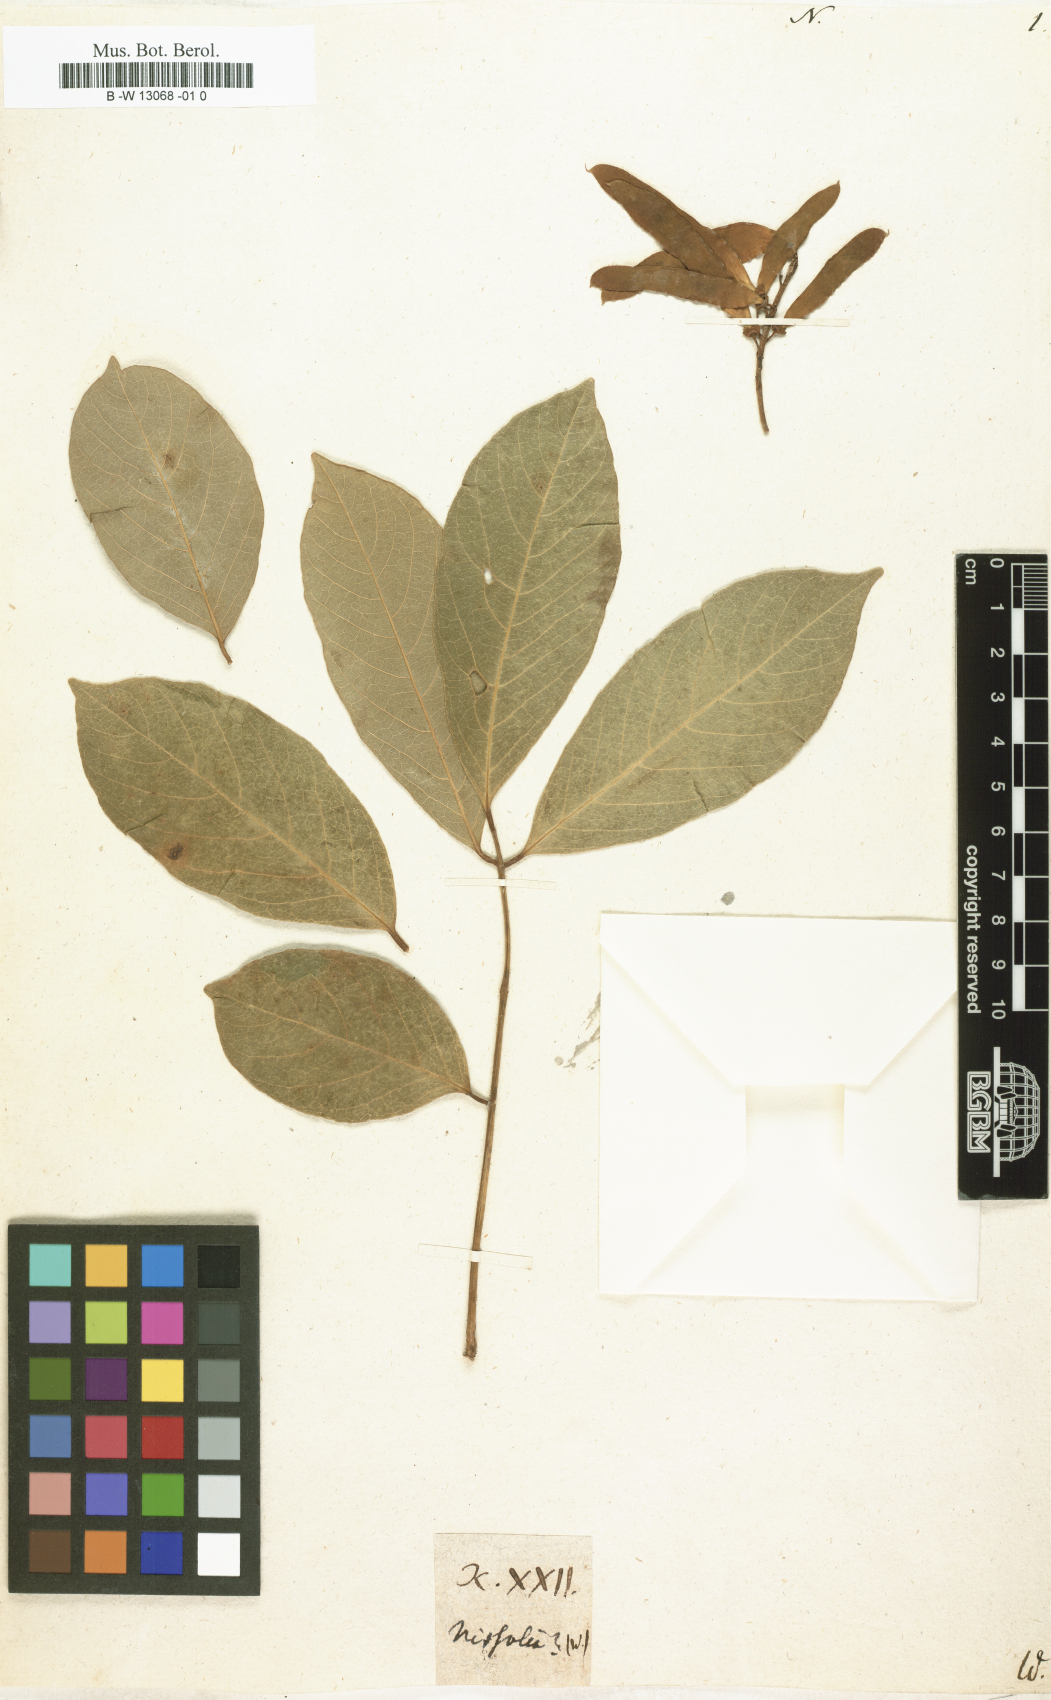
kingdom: Plantae
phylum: Tracheophyta
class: Magnoliopsida
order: Fabales
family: Fabaceae
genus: Nissolia
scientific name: Nissolia
